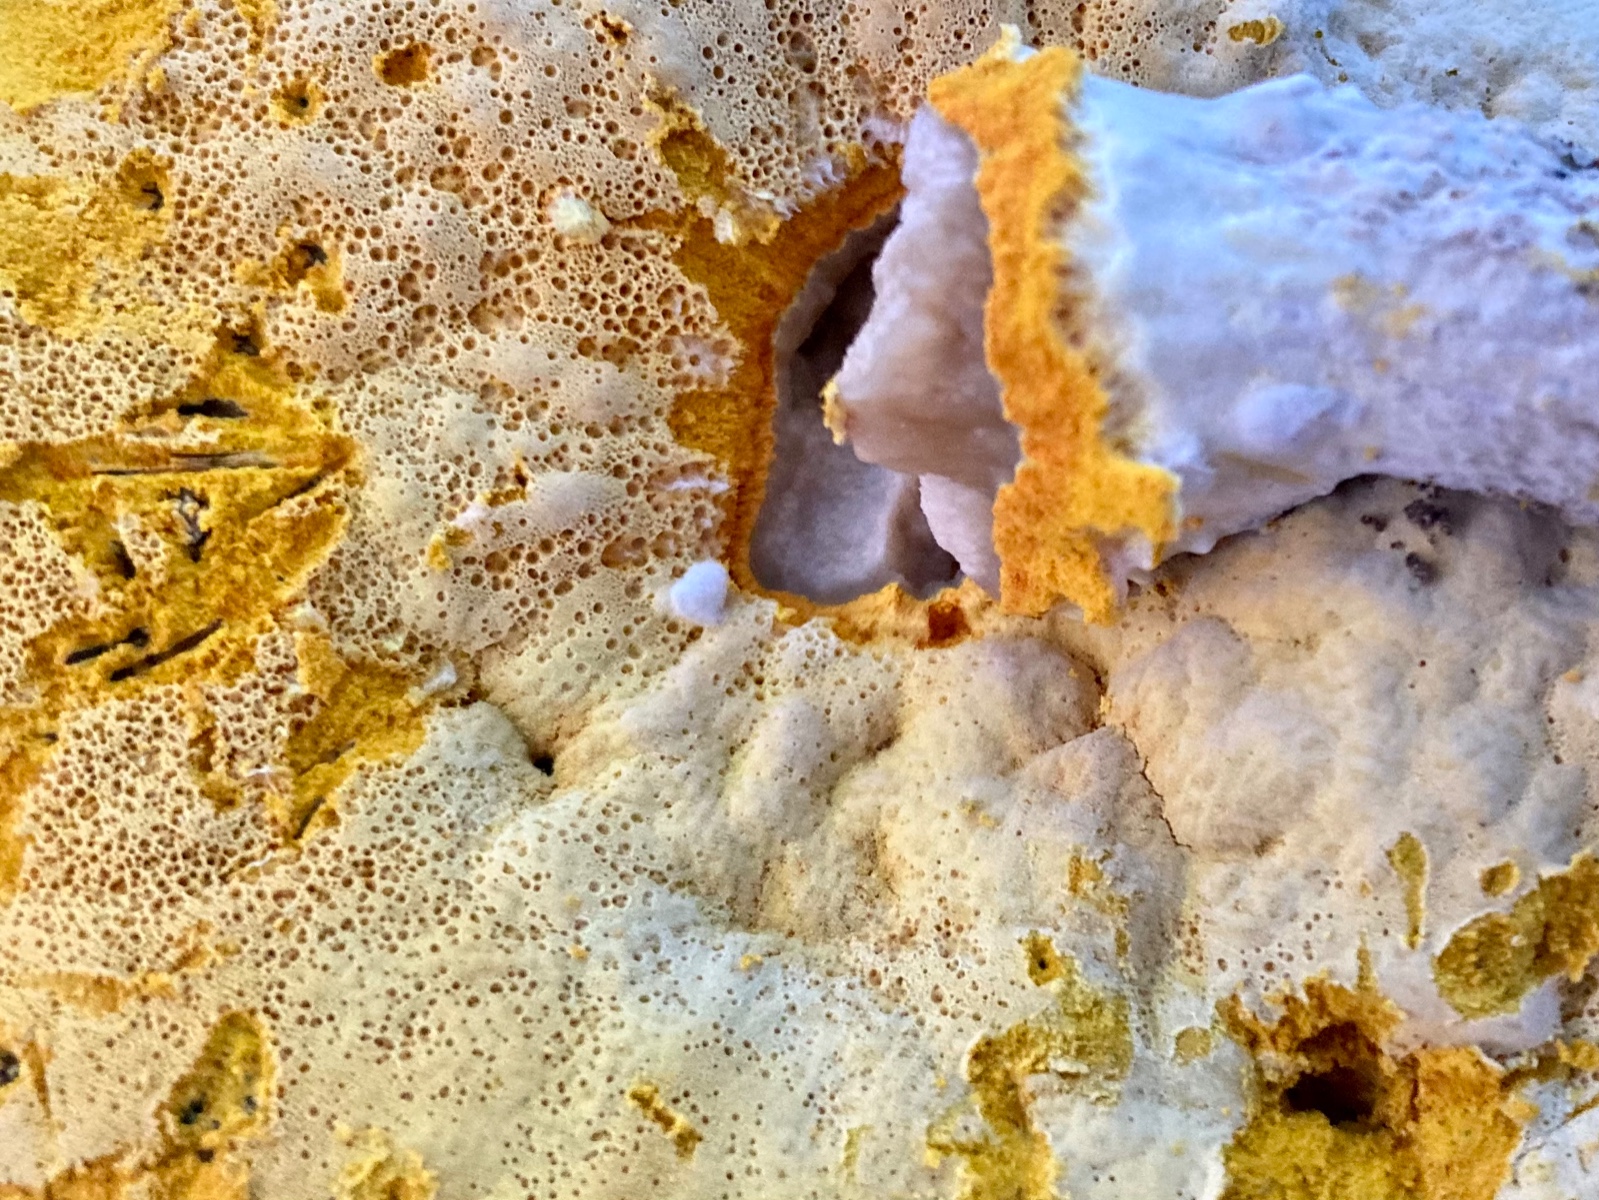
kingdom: Fungi
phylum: Ascomycota
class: Sordariomycetes
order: Hypocreales
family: Hypocreaceae
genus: Sepedonium
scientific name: Sepedonium laevigatum
